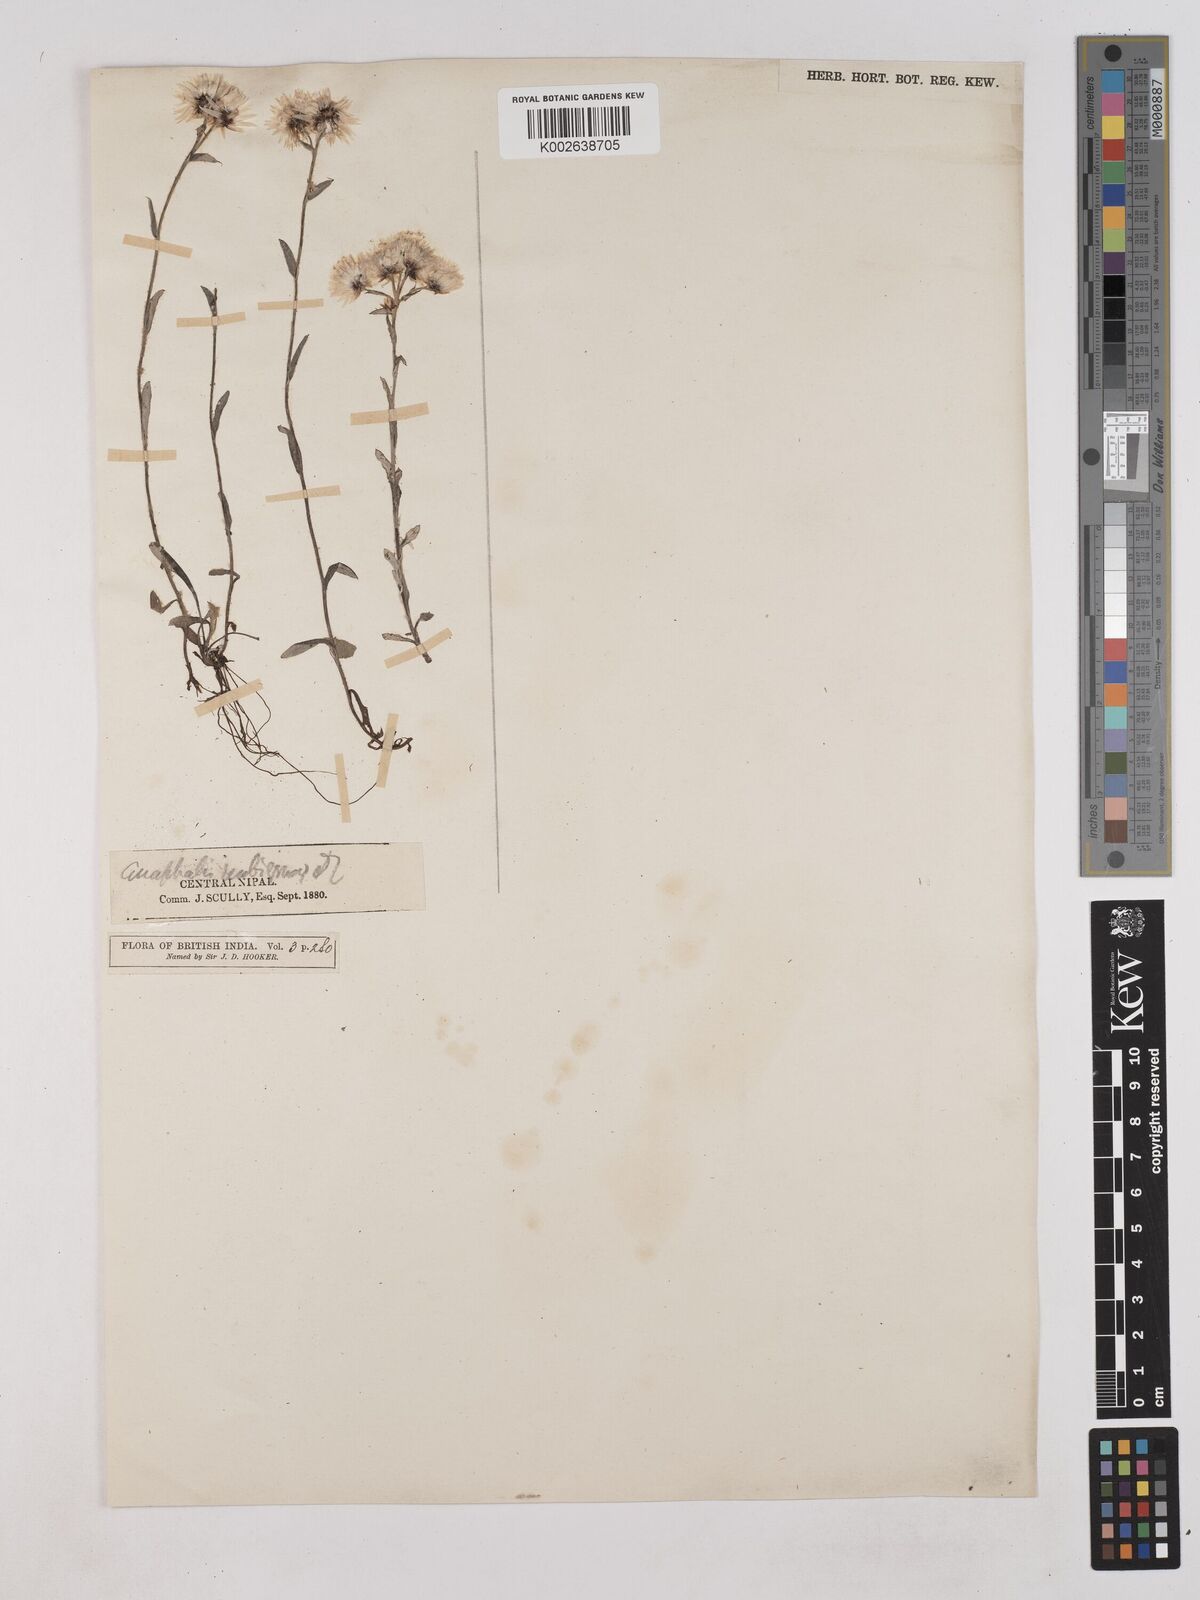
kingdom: Plantae
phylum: Tracheophyta
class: Magnoliopsida
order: Asterales
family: Asteraceae
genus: Anaphalis
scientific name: Anaphalis
